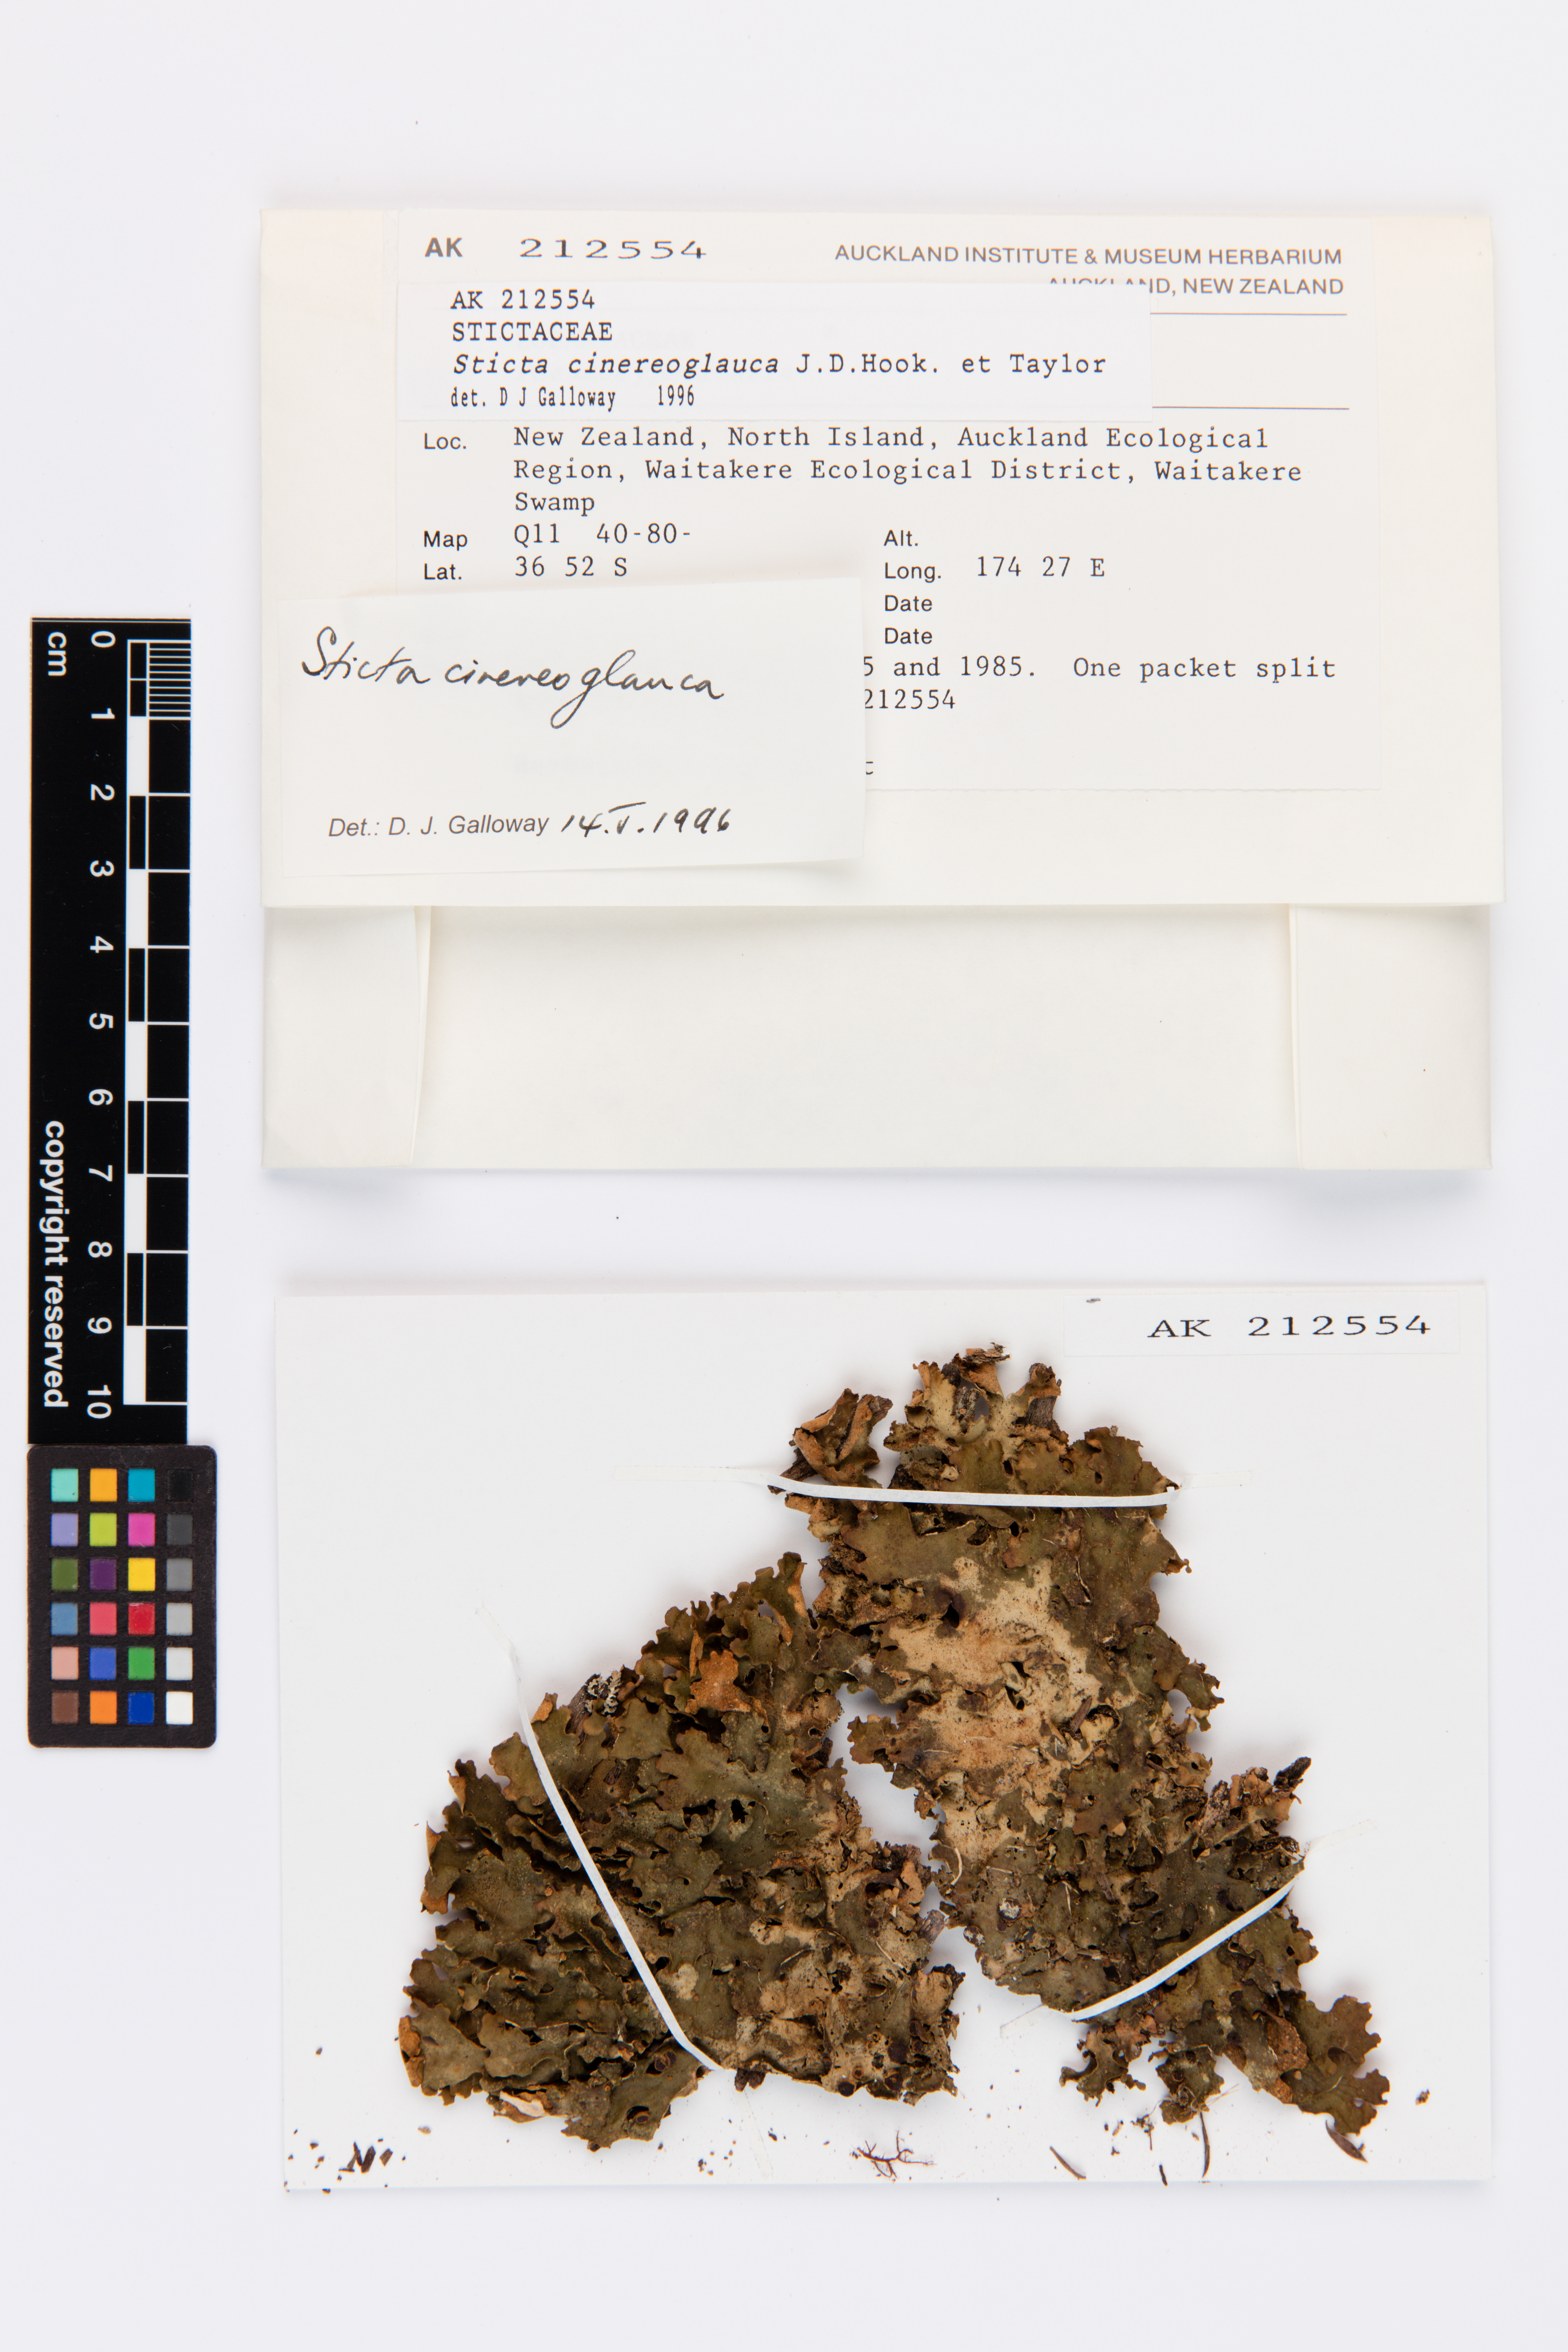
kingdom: Fungi
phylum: Ascomycota
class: Lecanoromycetes
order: Peltigerales
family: Lobariaceae
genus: Sticta
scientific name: Sticta cinereoglauca
